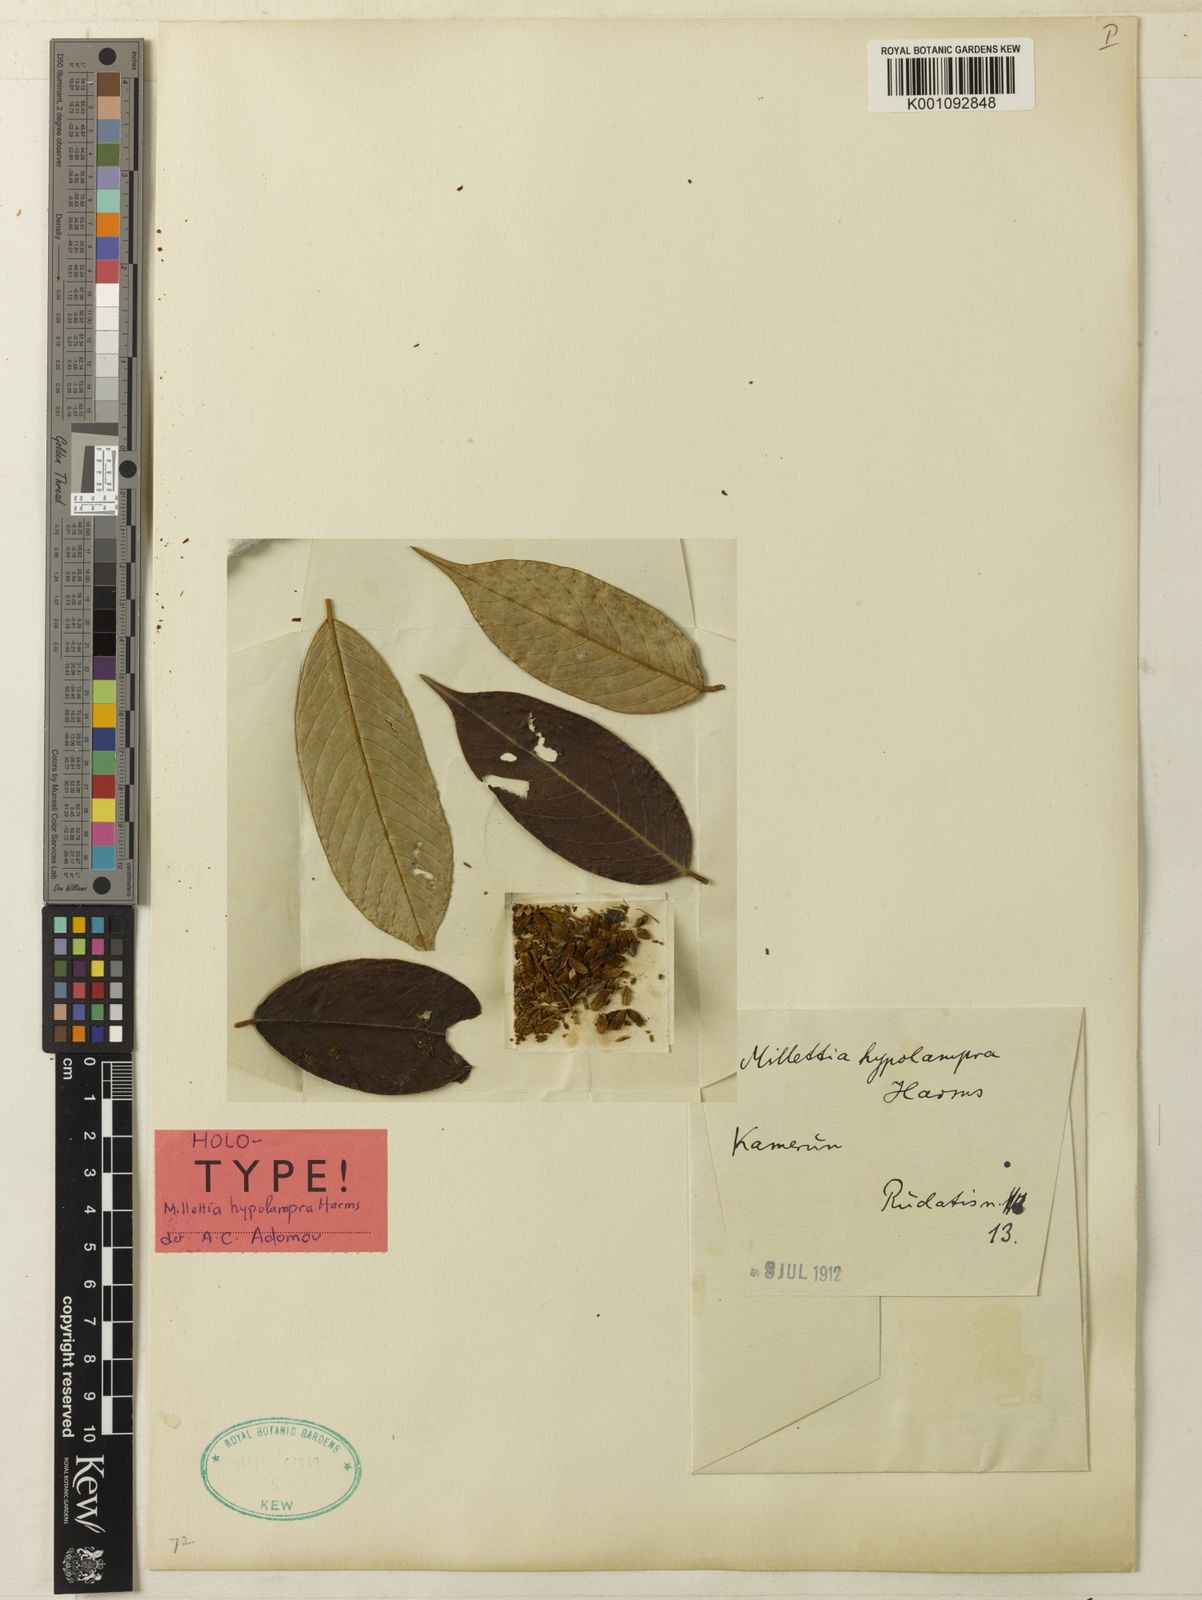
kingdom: Plantae
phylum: Tracheophyta
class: Magnoliopsida
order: Fabales
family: Fabaceae
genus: Millettia
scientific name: Millettia hypolampra
